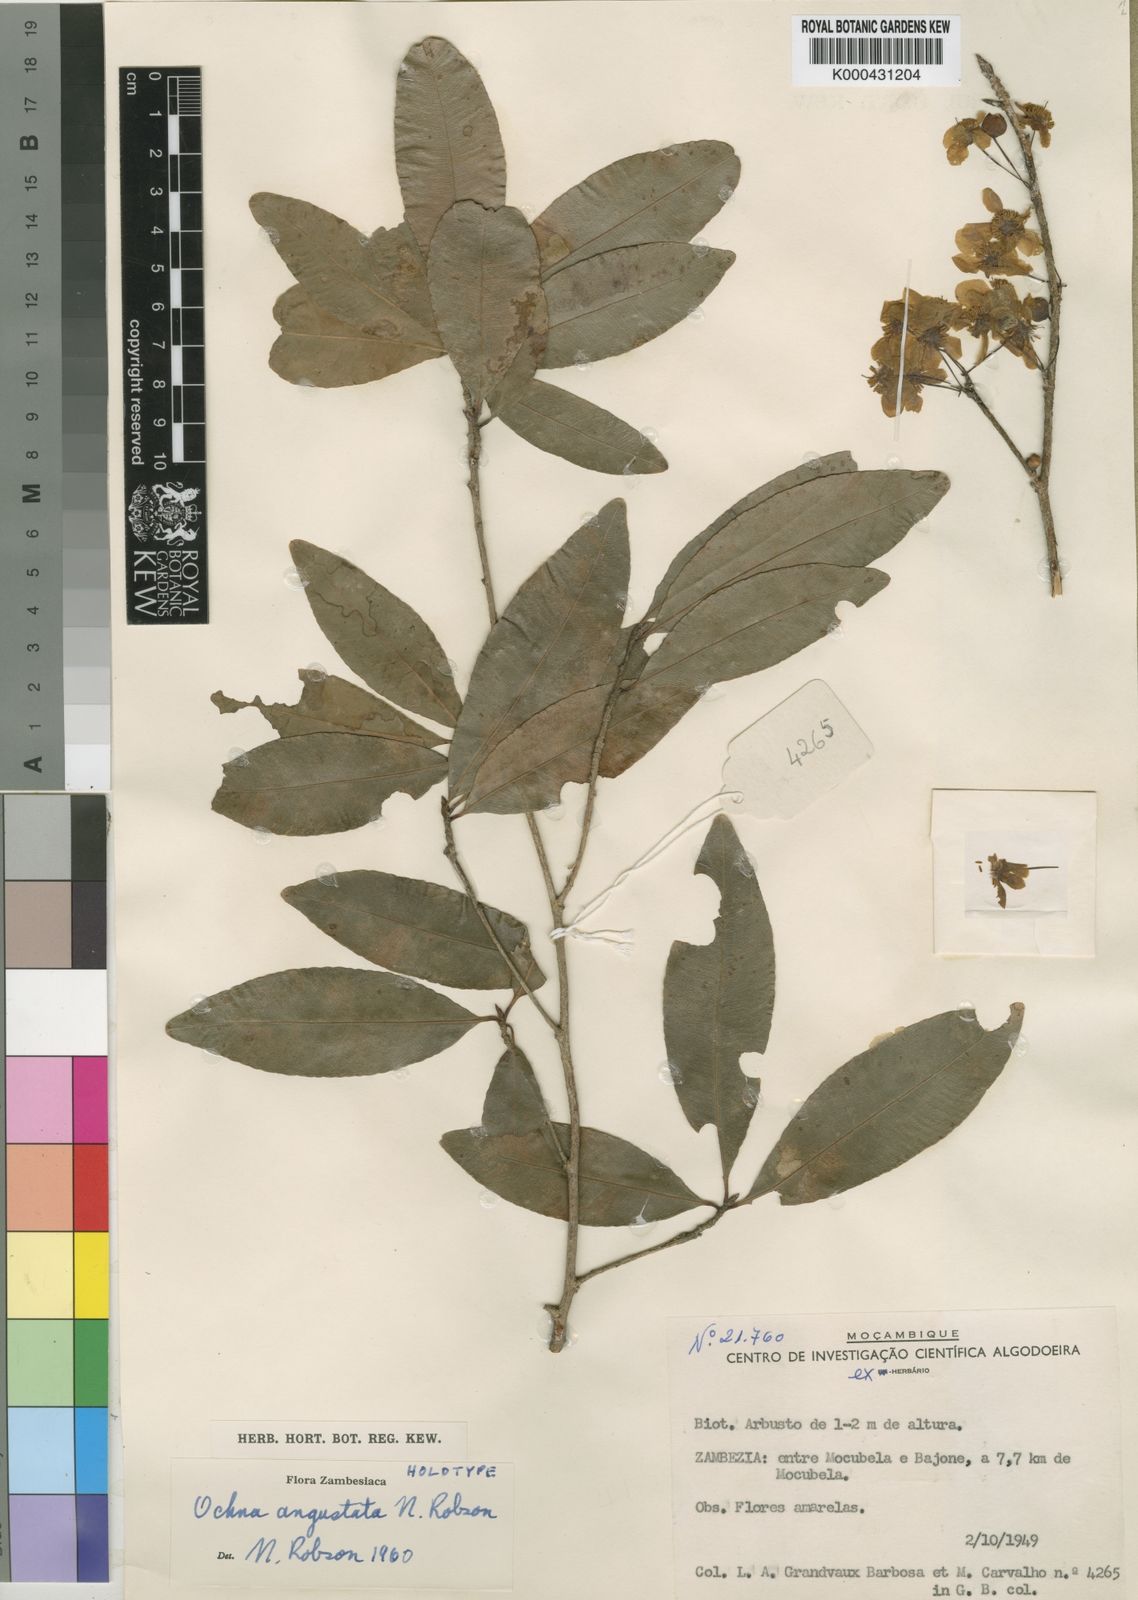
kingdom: Plantae
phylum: Tracheophyta
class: Magnoliopsida
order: Malpighiales
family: Ochnaceae
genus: Ochna
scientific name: Ochna angustata
